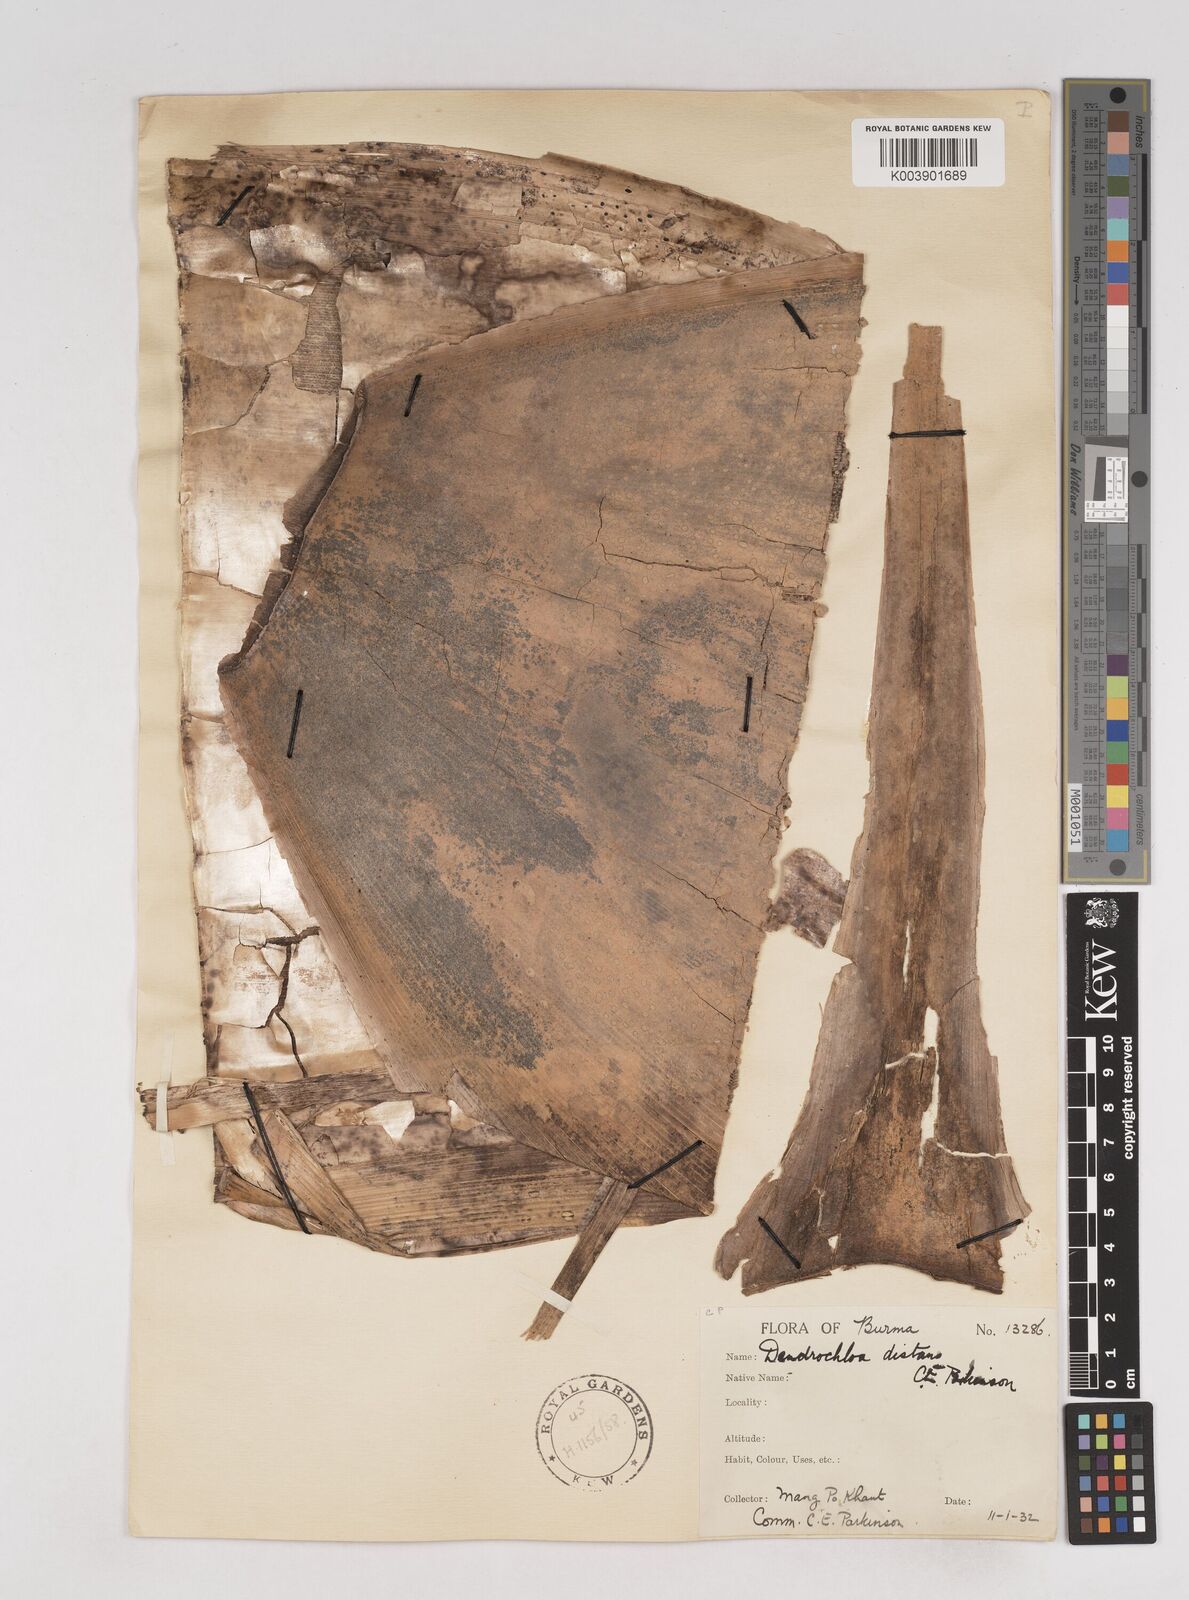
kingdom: Plantae
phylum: Tracheophyta
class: Liliopsida
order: Poales
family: Poaceae
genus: Schizostachyum
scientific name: Schizostachyum distans
